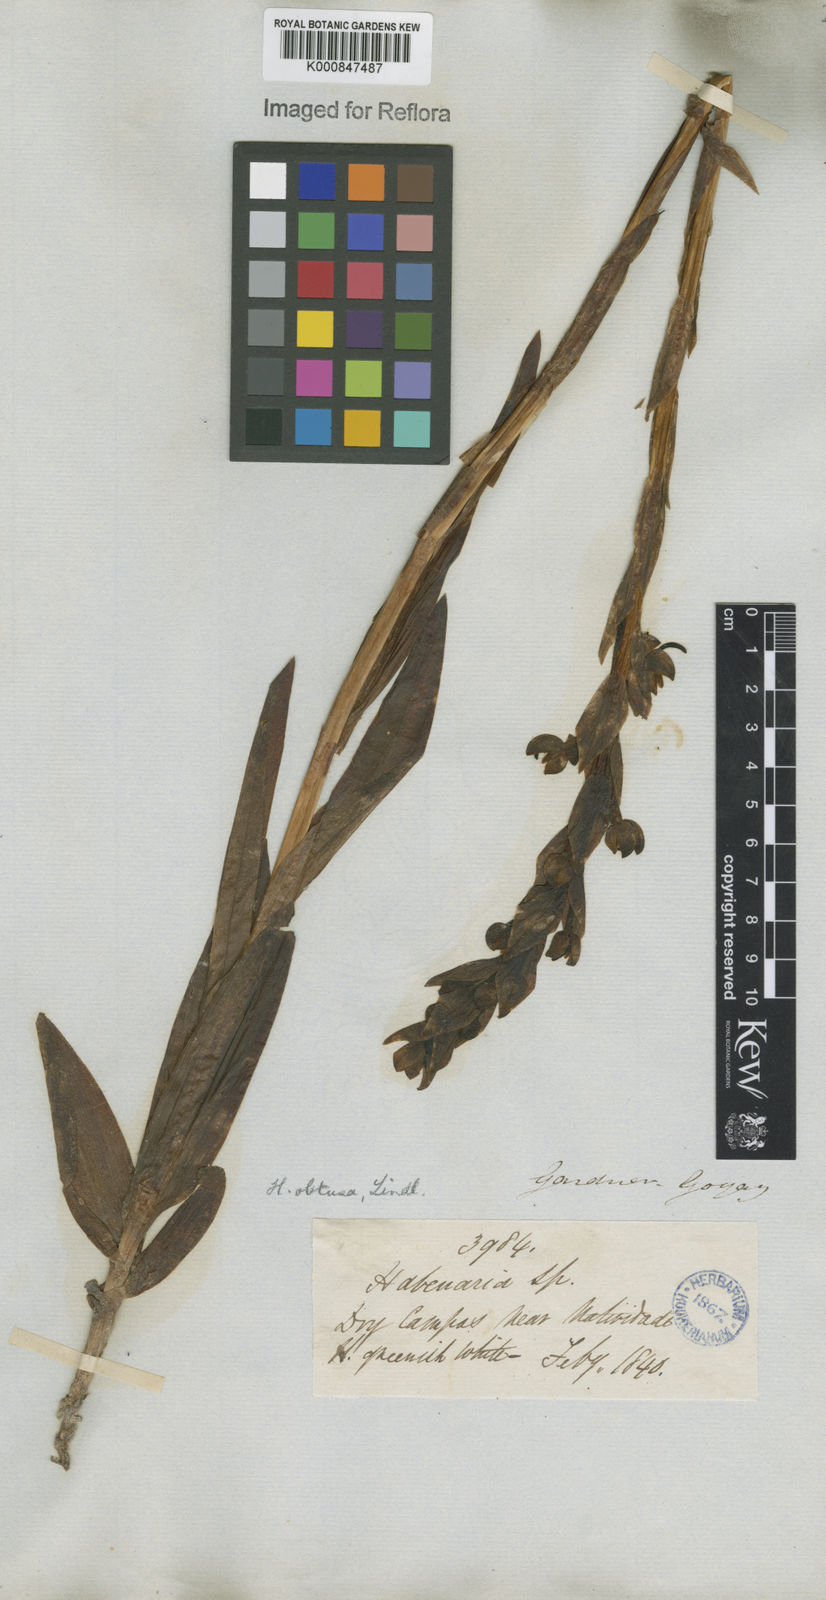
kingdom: Plantae
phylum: Tracheophyta
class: Liliopsida
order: Asparagales
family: Orchidaceae
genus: Habenaria
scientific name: Habenaria obtusa
